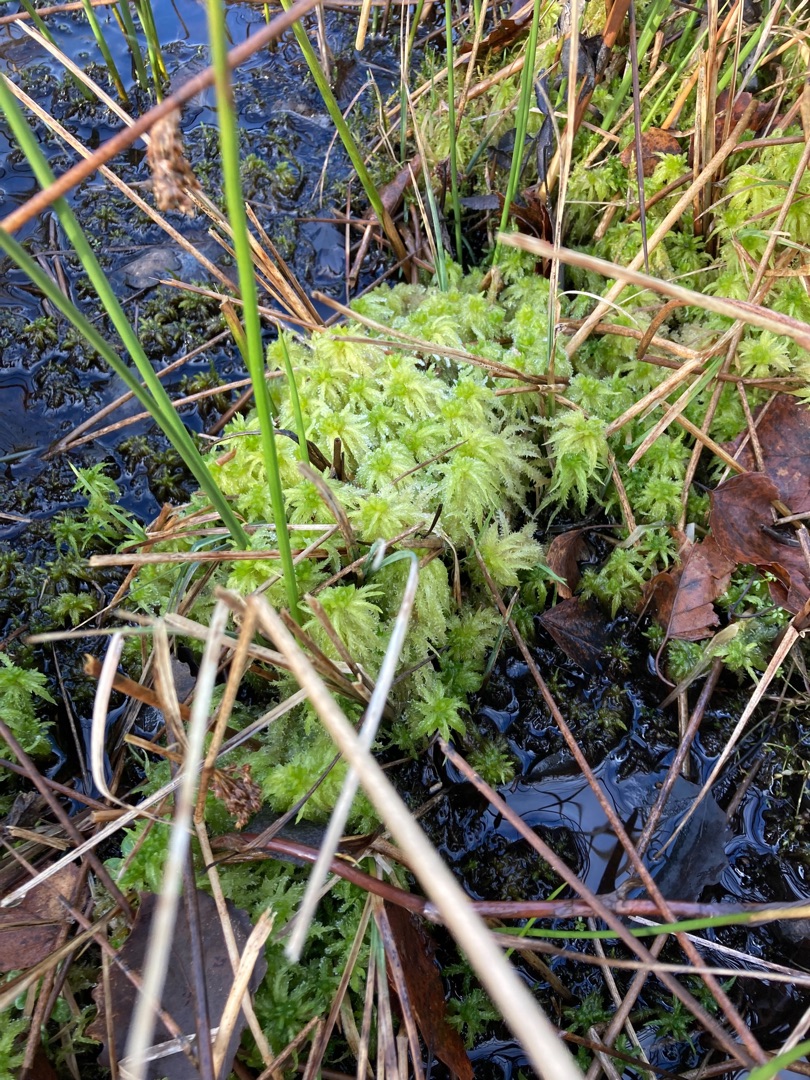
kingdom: Plantae
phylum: Bryophyta
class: Sphagnopsida
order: Sphagnales
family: Sphagnaceae
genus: Sphagnum
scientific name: Sphagnum squarrosum
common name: Udspærret tørvemos
